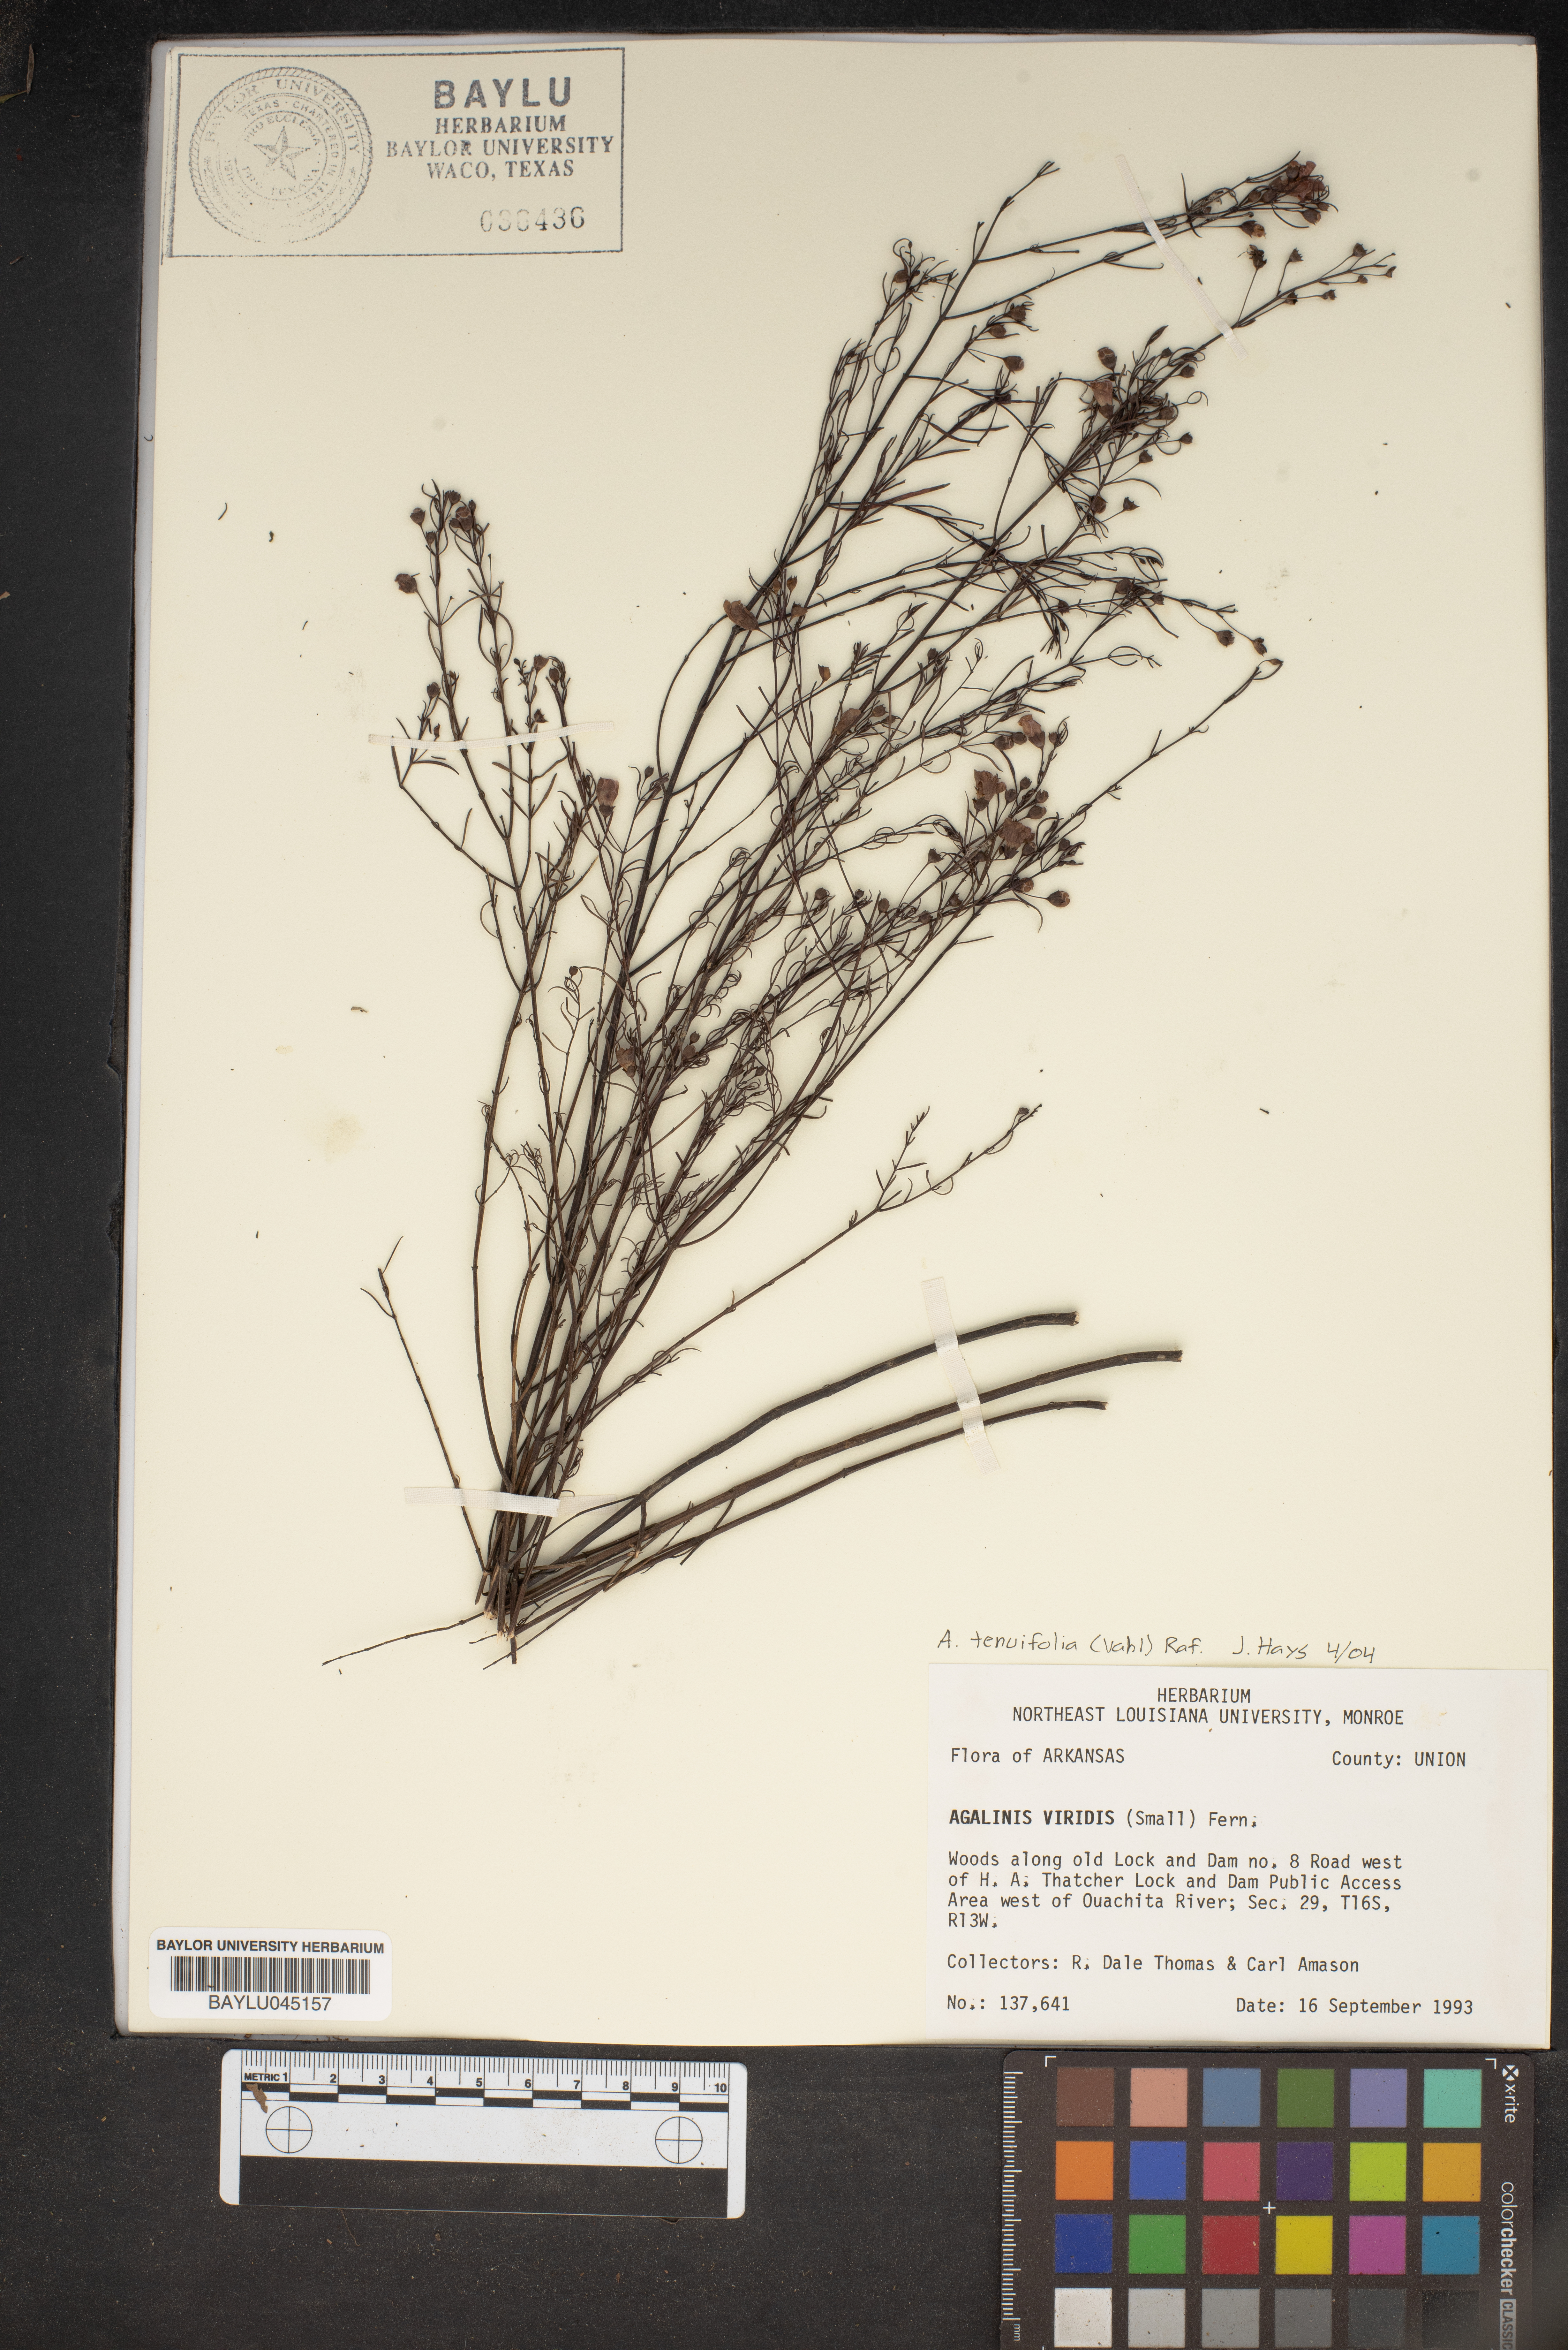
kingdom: Plantae
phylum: Tracheophyta
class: Magnoliopsida
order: Lamiales
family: Orobanchaceae
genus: Agalinis
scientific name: Agalinis viridis
